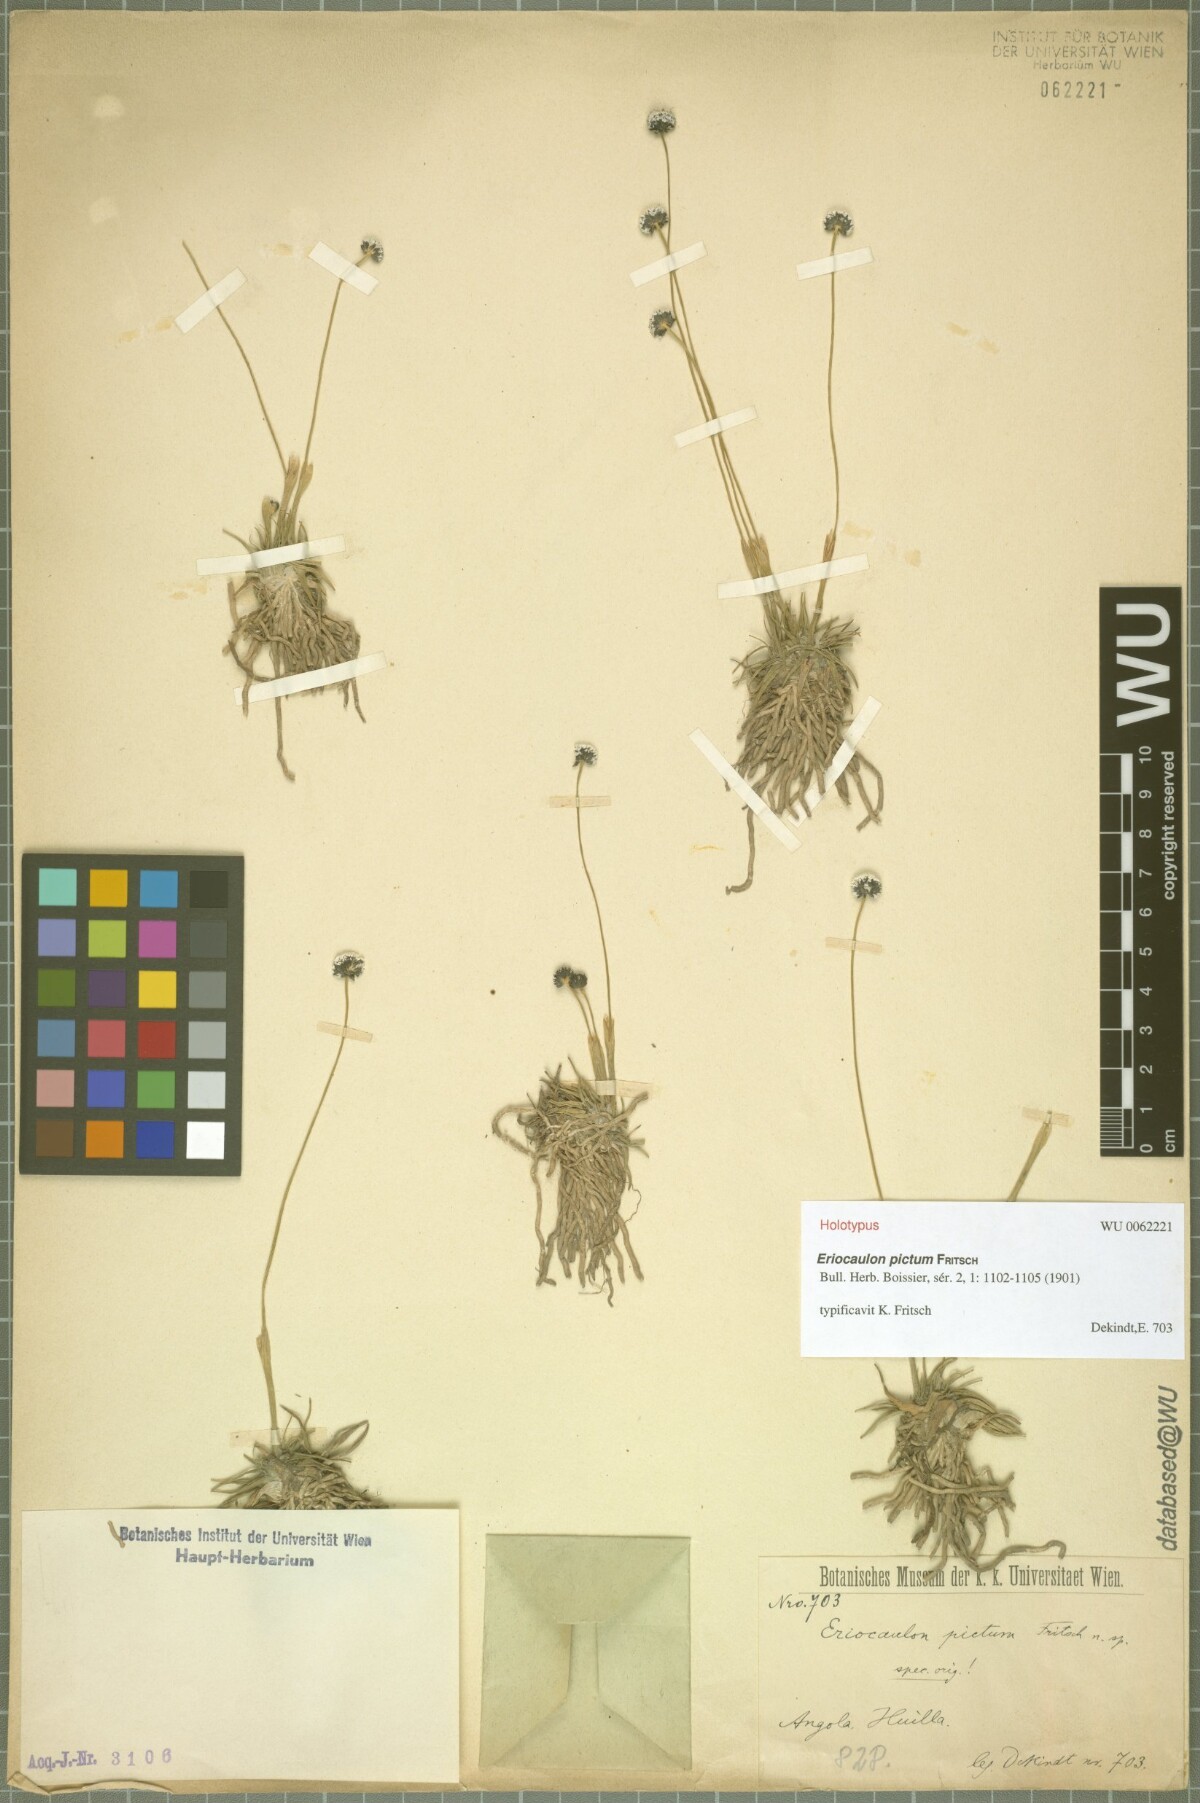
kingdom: Plantae
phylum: Tracheophyta
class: Liliopsida
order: Poales
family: Eriocaulaceae
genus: Eriocaulon
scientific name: Eriocaulon pictum
